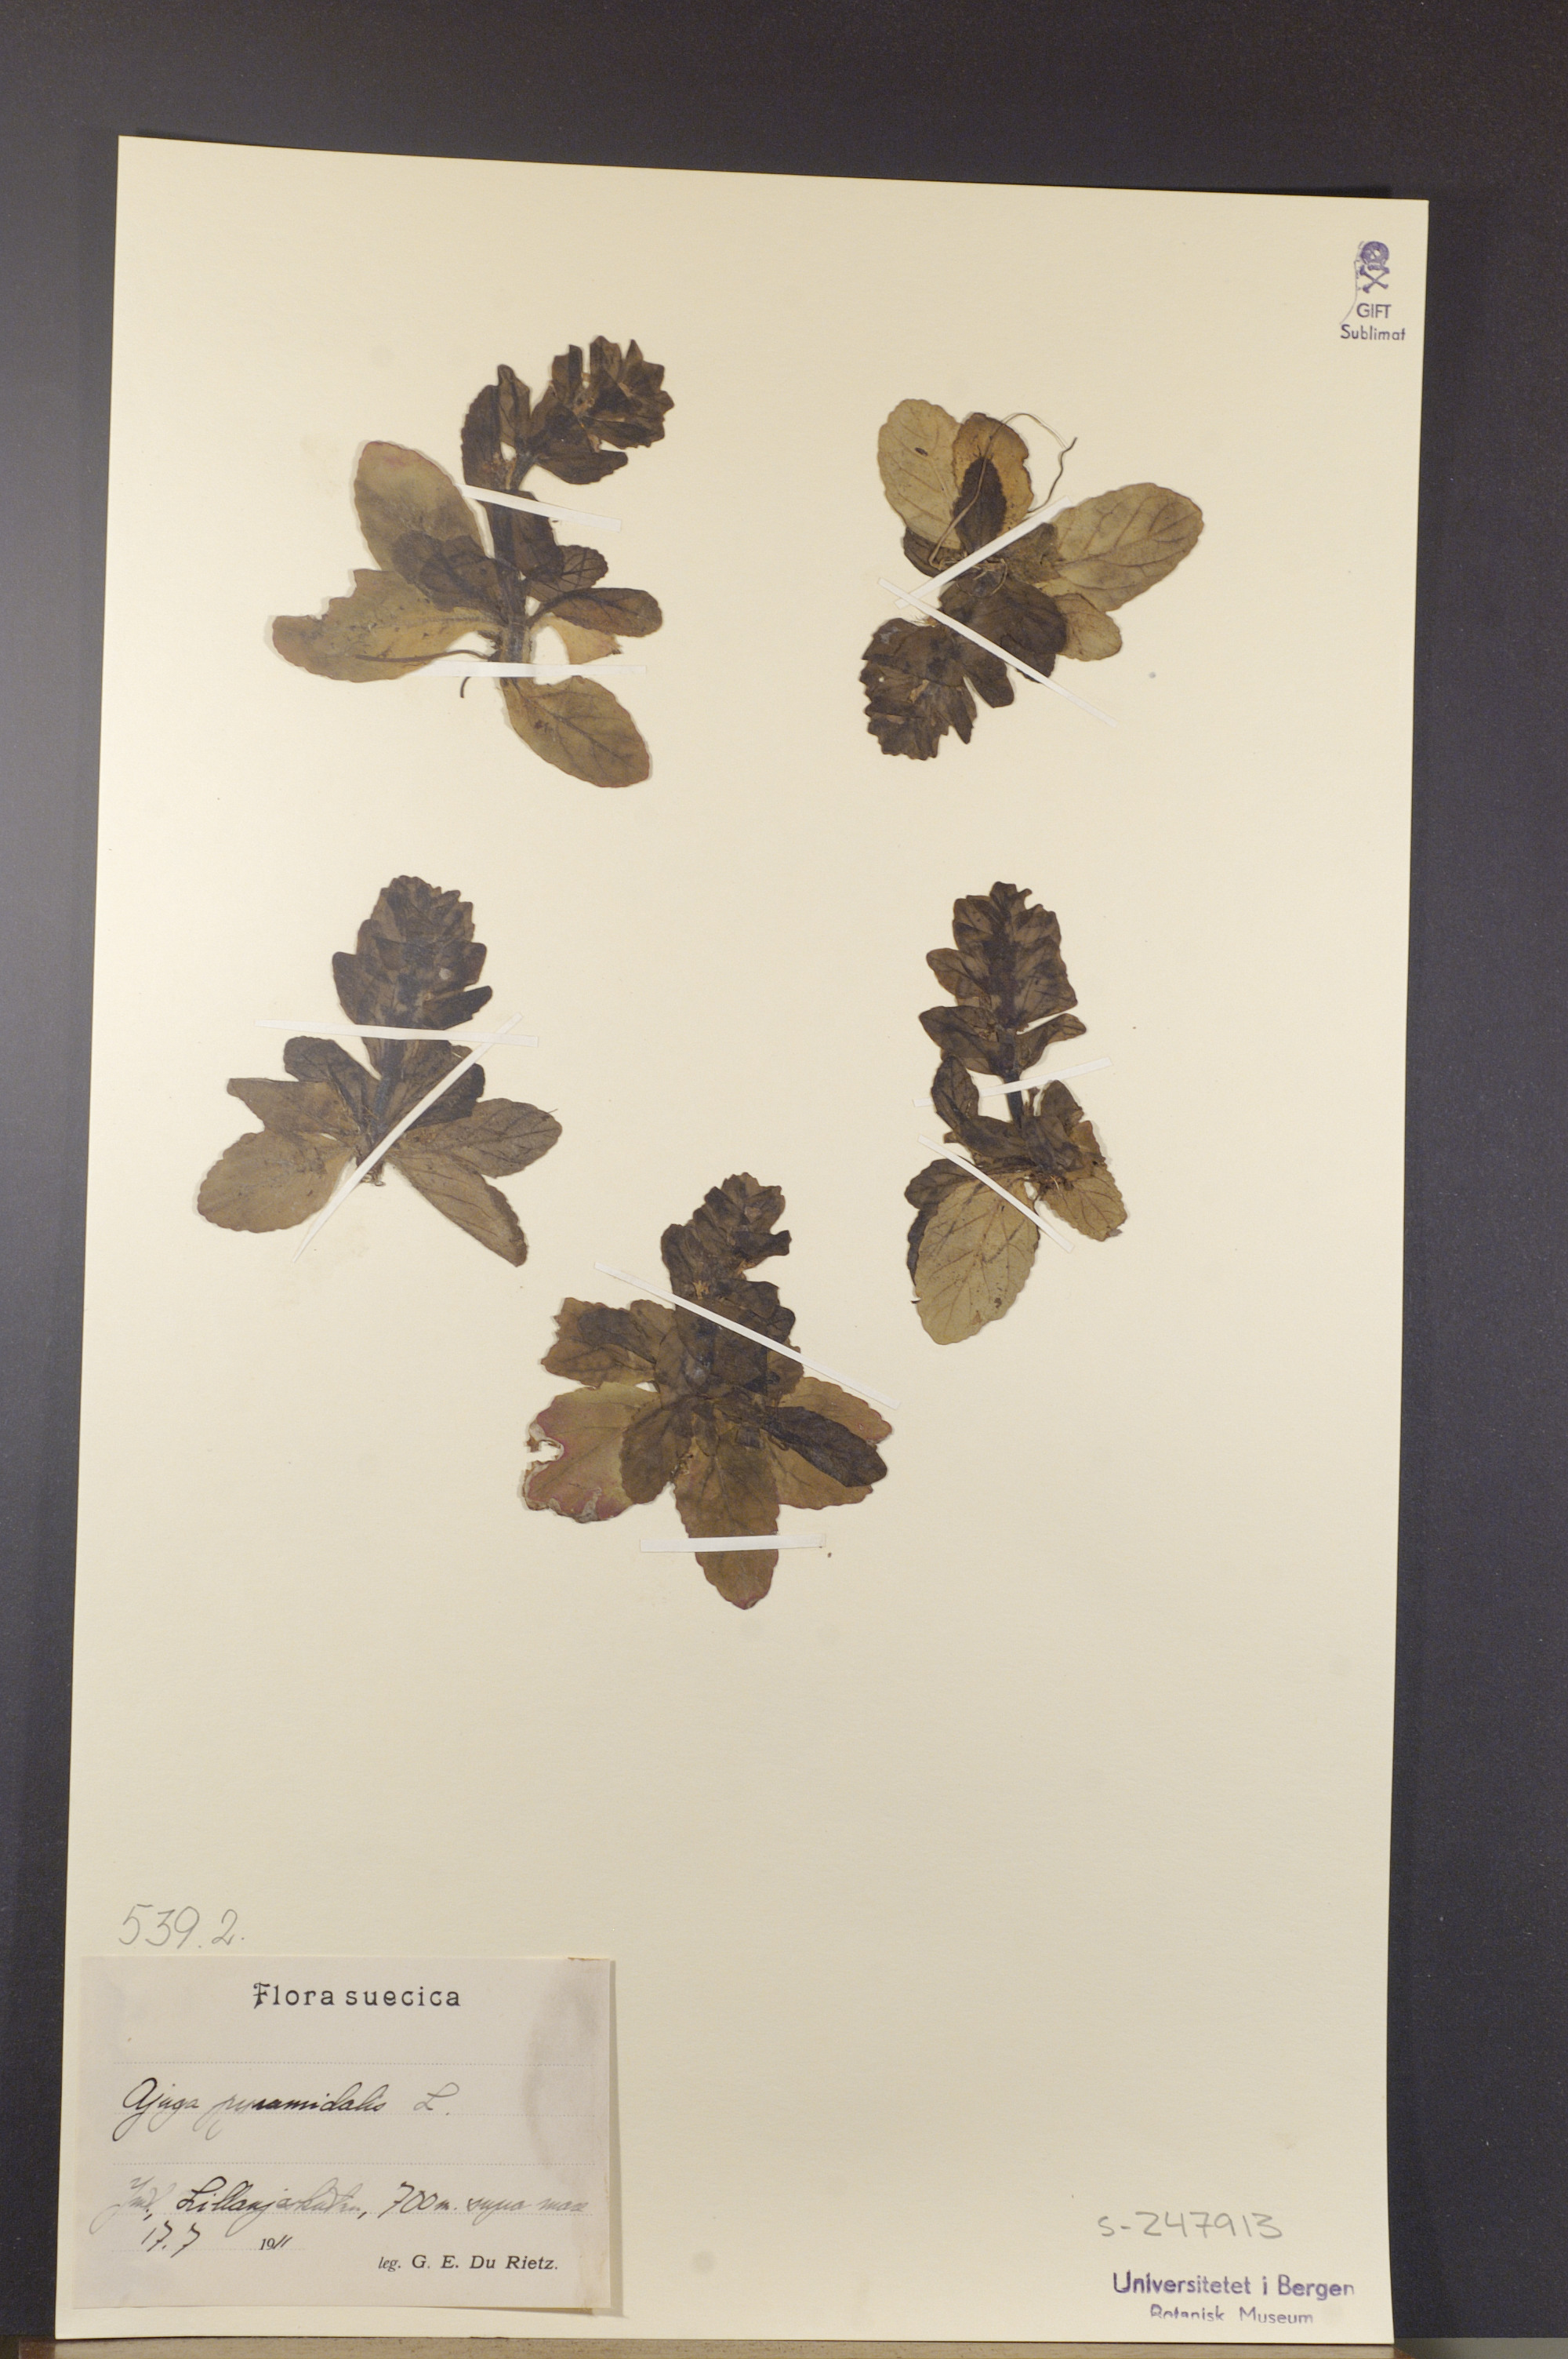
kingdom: Plantae
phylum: Tracheophyta
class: Magnoliopsida
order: Lamiales
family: Lamiaceae
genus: Ajuga
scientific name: Ajuga pyramidalis
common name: Pyramid bugle
